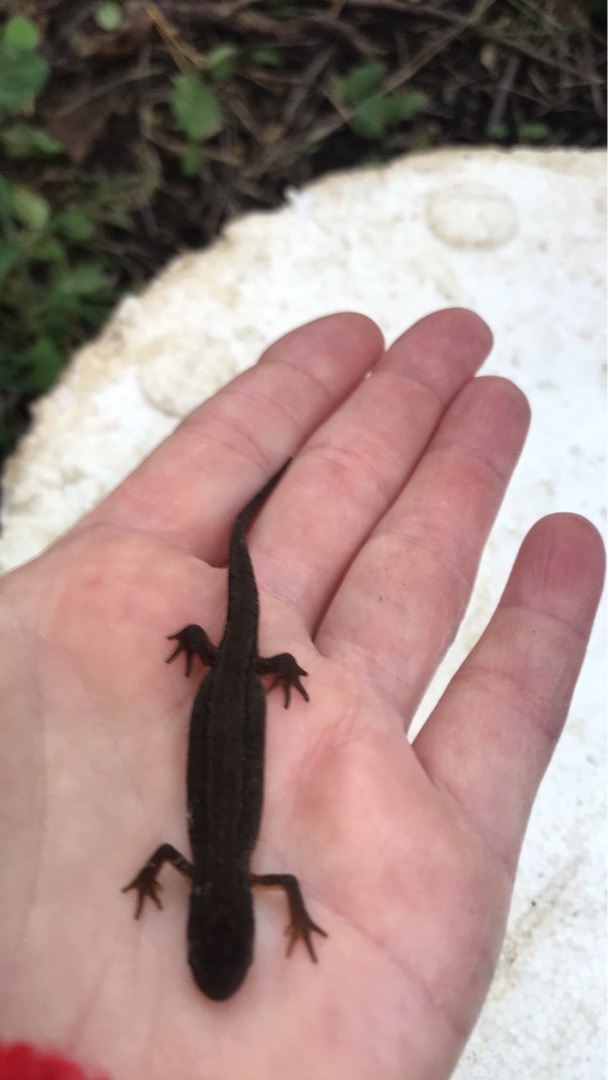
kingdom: Animalia
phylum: Chordata
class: Amphibia
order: Caudata
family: Salamandridae
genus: Lissotriton
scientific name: Lissotriton vulgaris
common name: Lille vandsalamander
